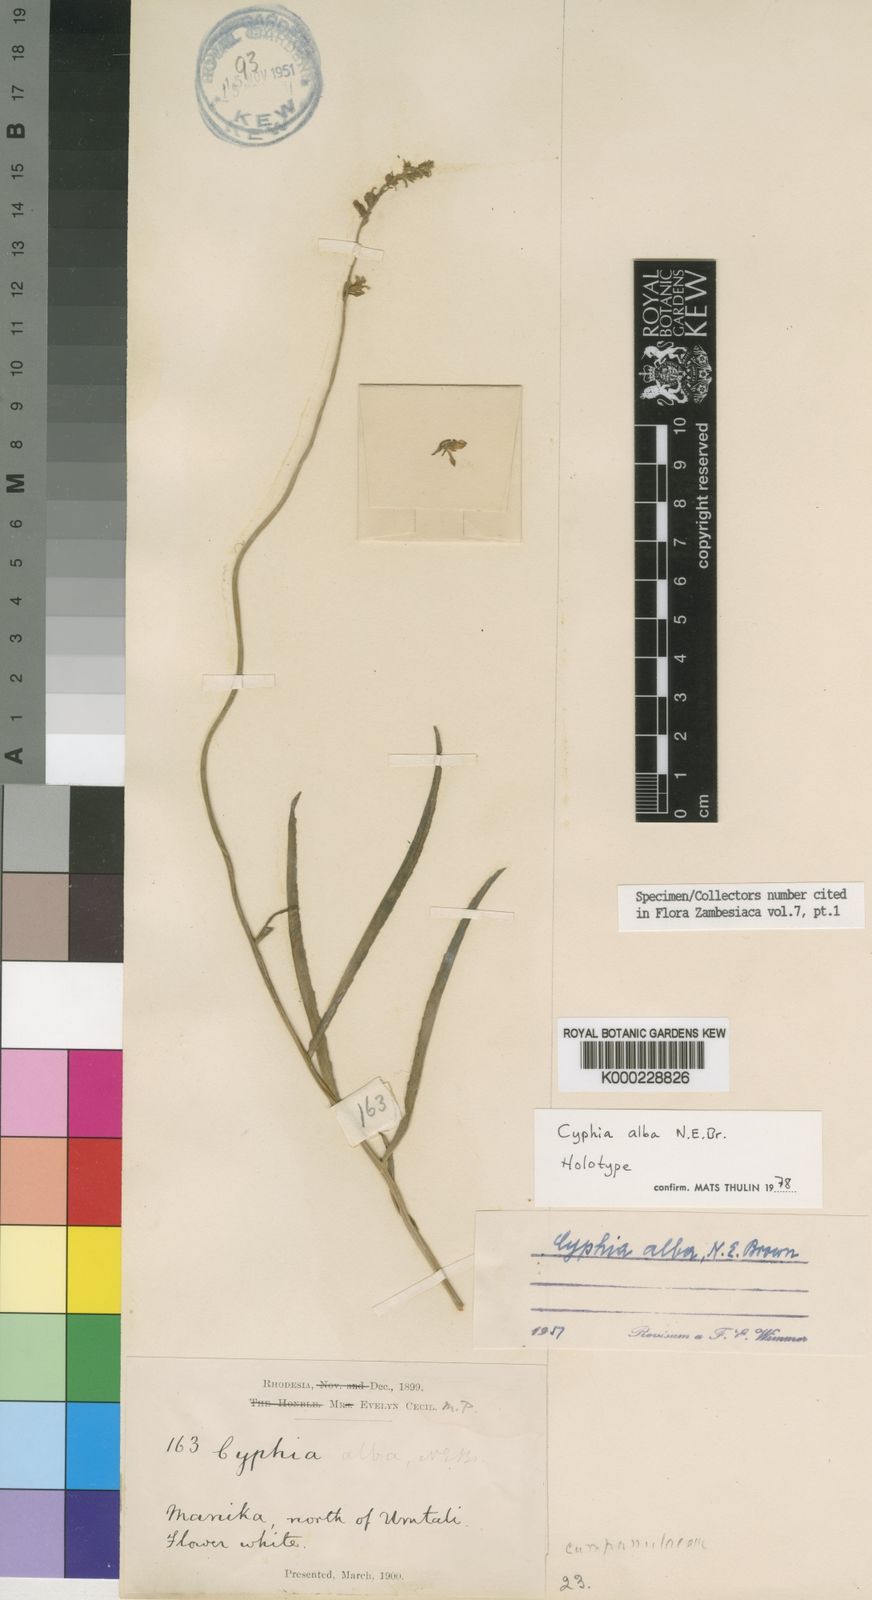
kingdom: Plantae
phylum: Tracheophyta
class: Magnoliopsida
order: Asterales
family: Campanulaceae
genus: Cyphia
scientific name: Cyphia alba
